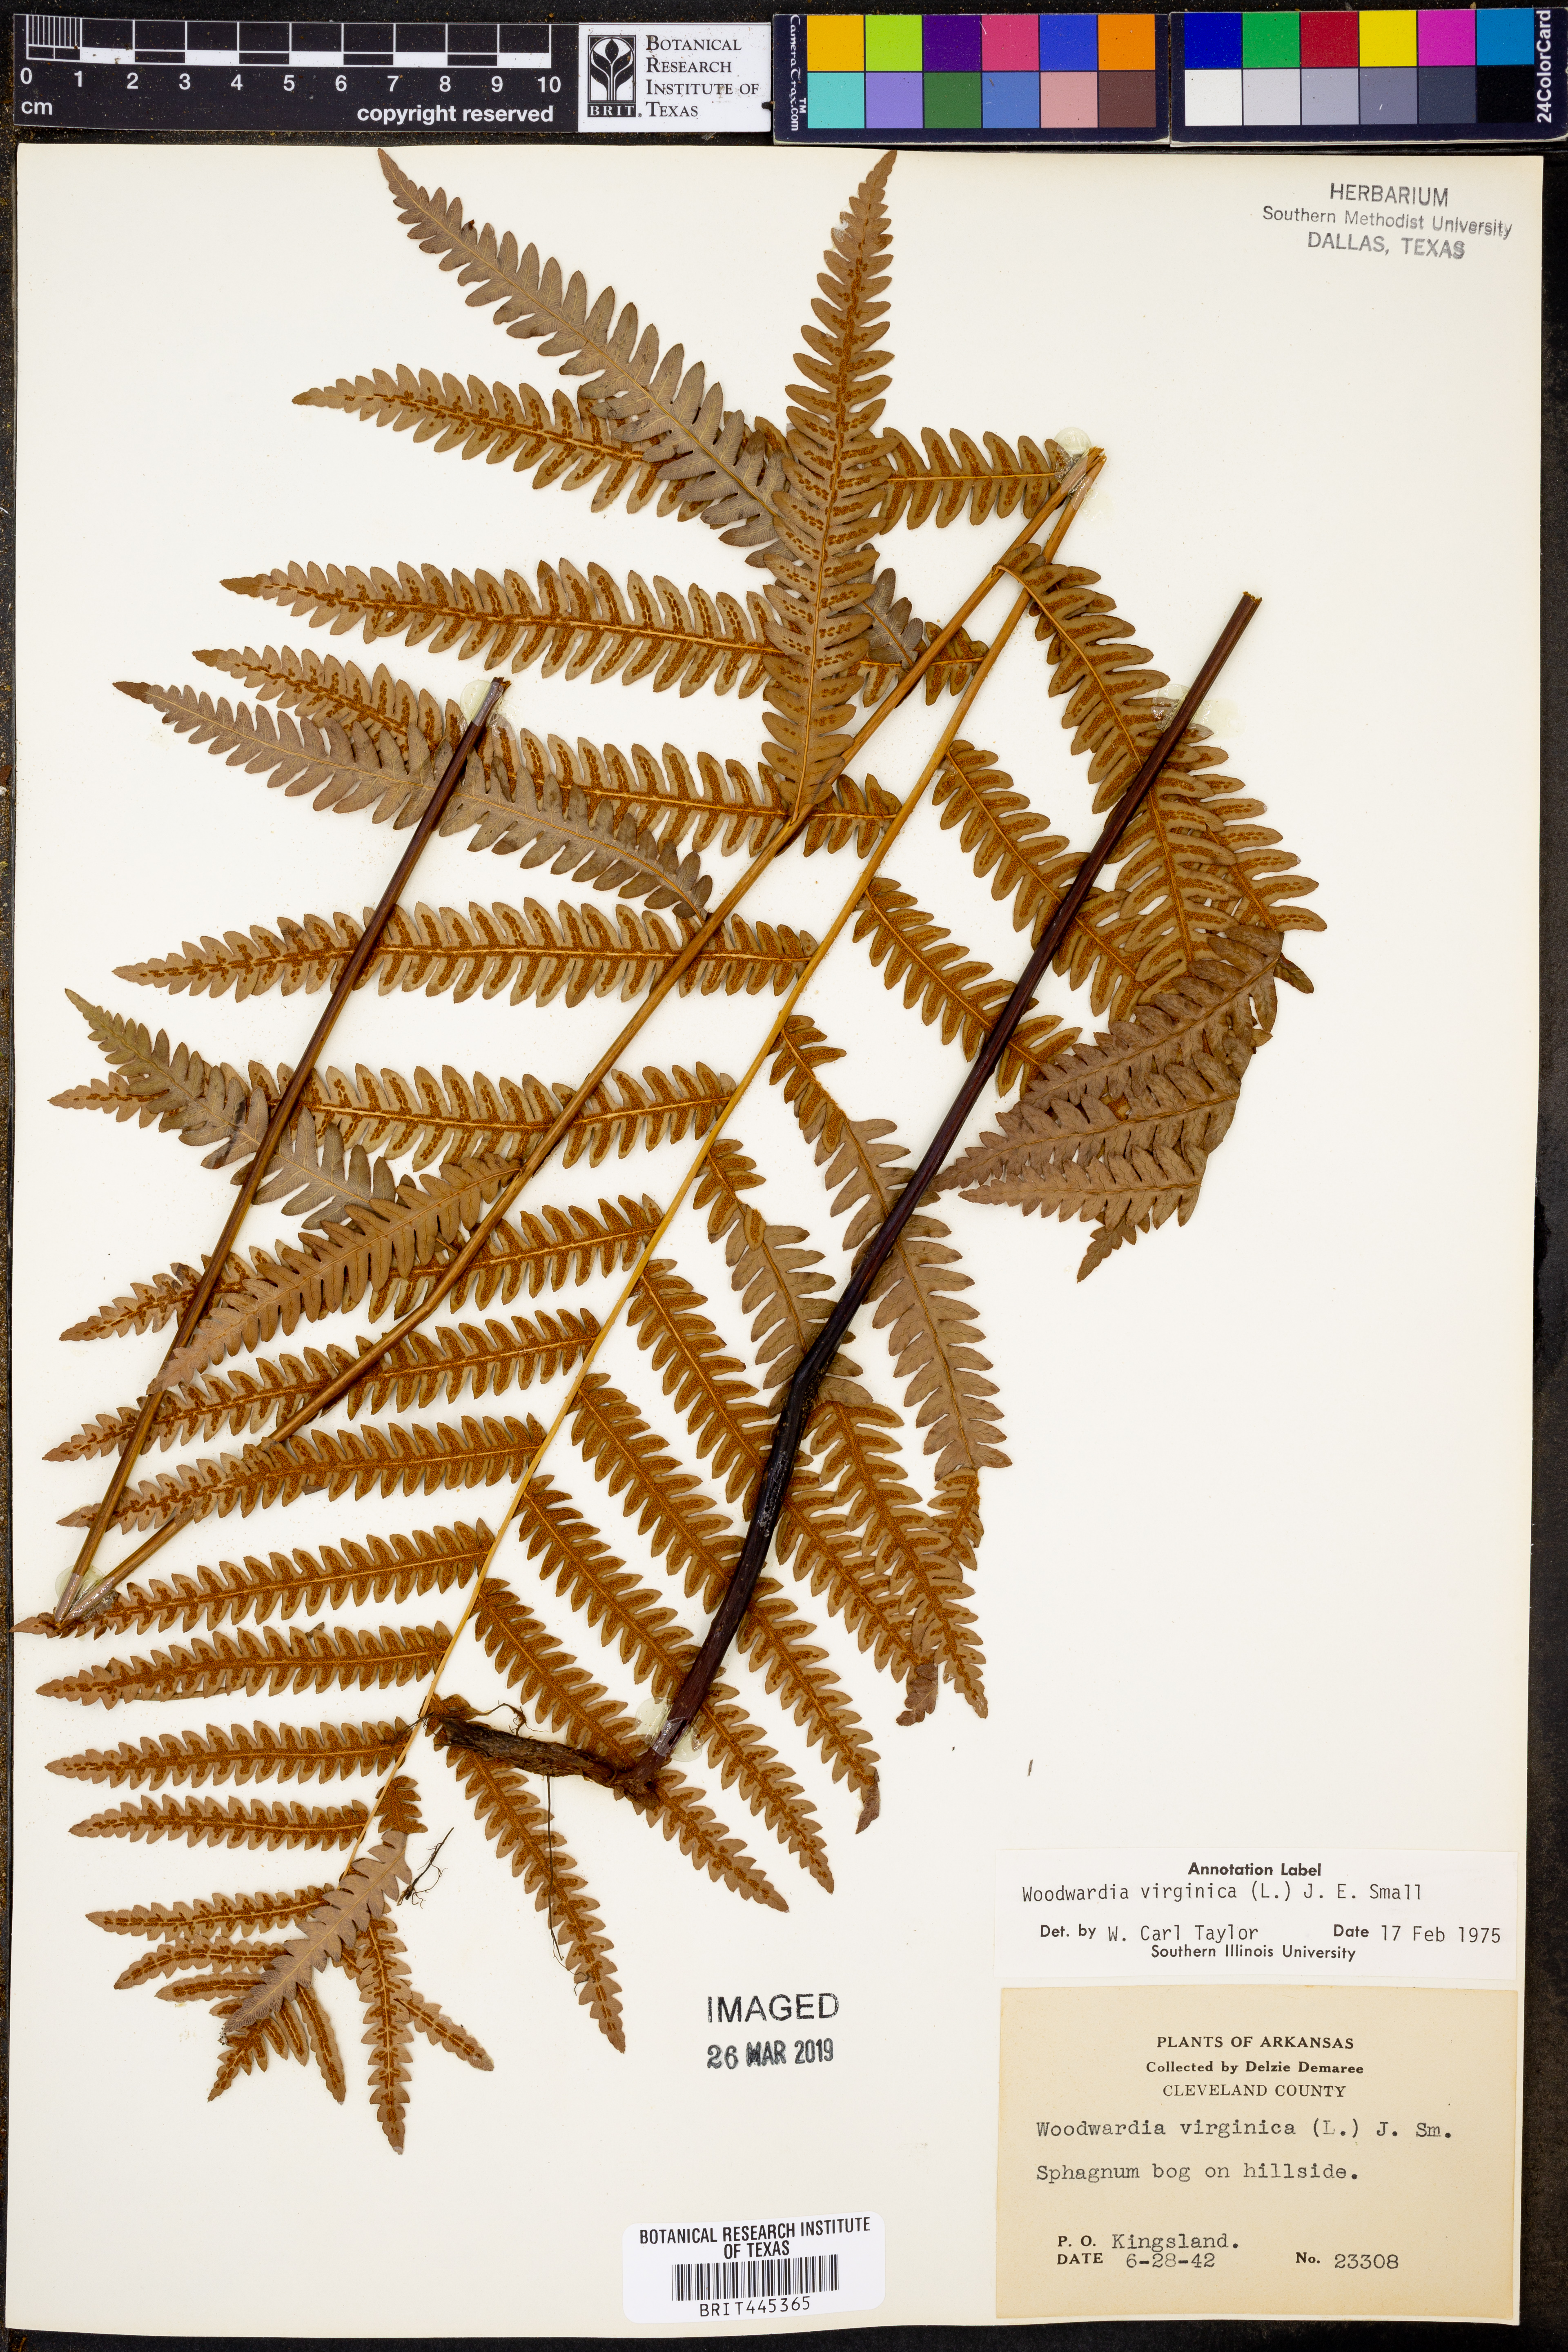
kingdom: Plantae
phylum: Tracheophyta
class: Polypodiopsida
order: Polypodiales
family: Blechnaceae
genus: Anchistea
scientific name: Anchistea virginica
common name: Virginia chain fern
